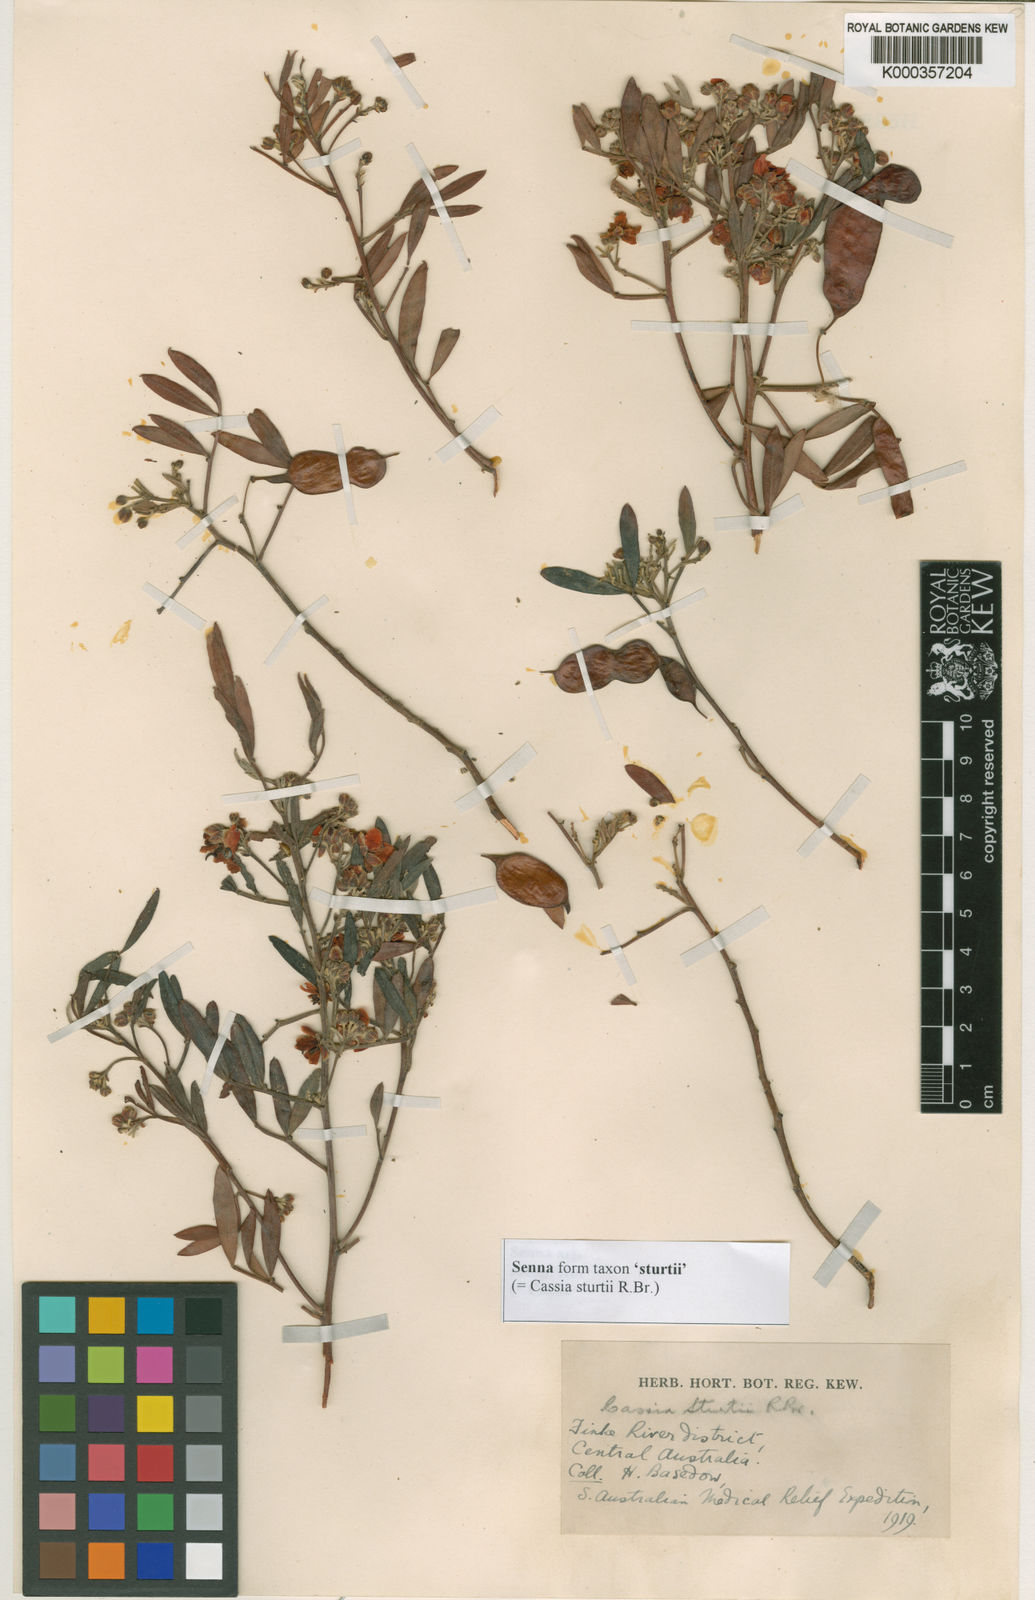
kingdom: Plantae
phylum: Tracheophyta
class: Magnoliopsida
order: Fabales
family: Fabaceae
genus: Senna
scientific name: Senna artemisioides
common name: Burnt-leaved acacia
